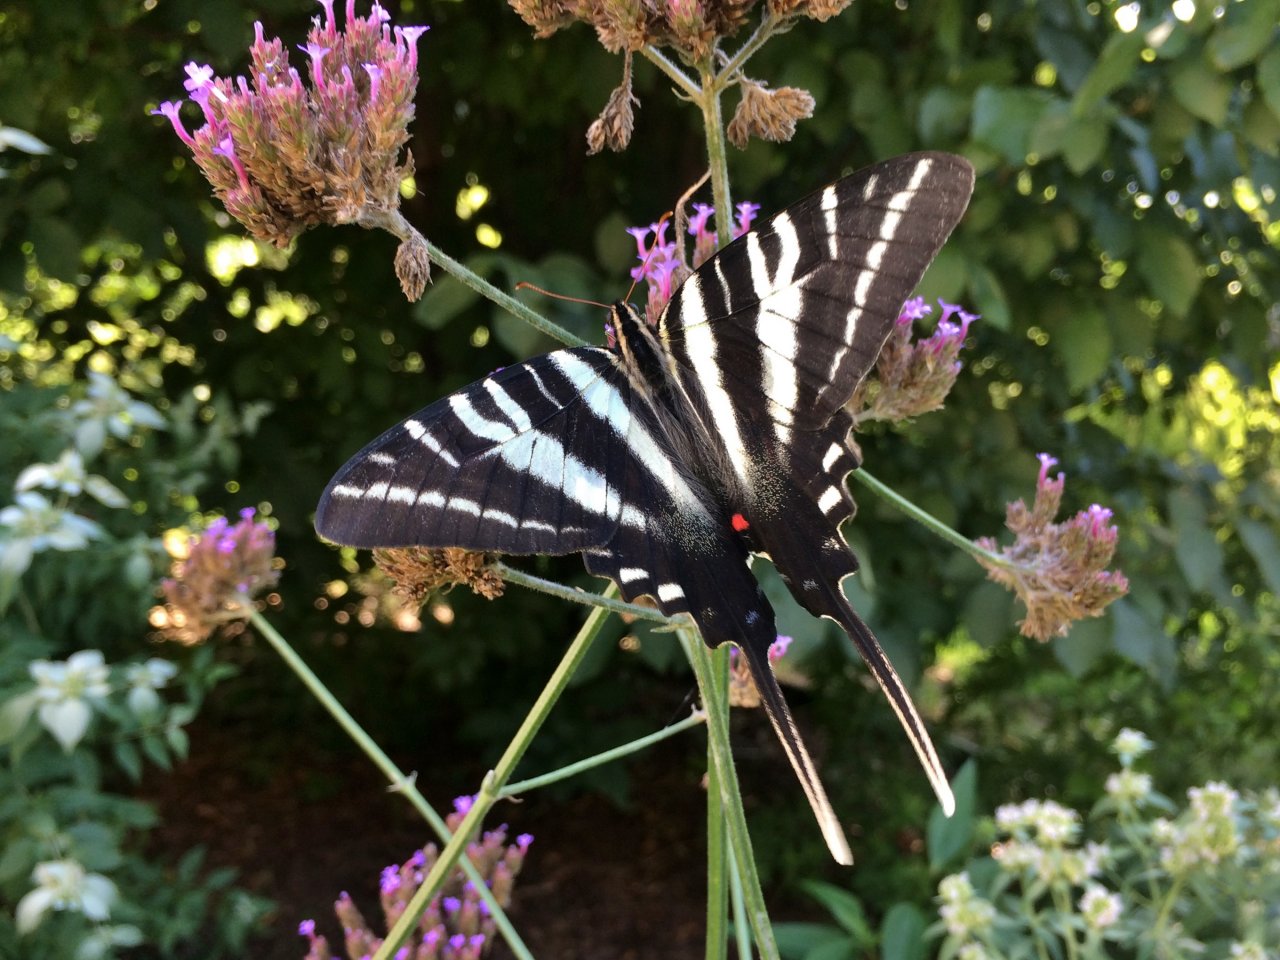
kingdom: Animalia
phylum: Arthropoda
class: Insecta
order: Lepidoptera
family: Papilionidae
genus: Protographium
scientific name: Protographium marcellus
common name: Zebra Swallowtail
